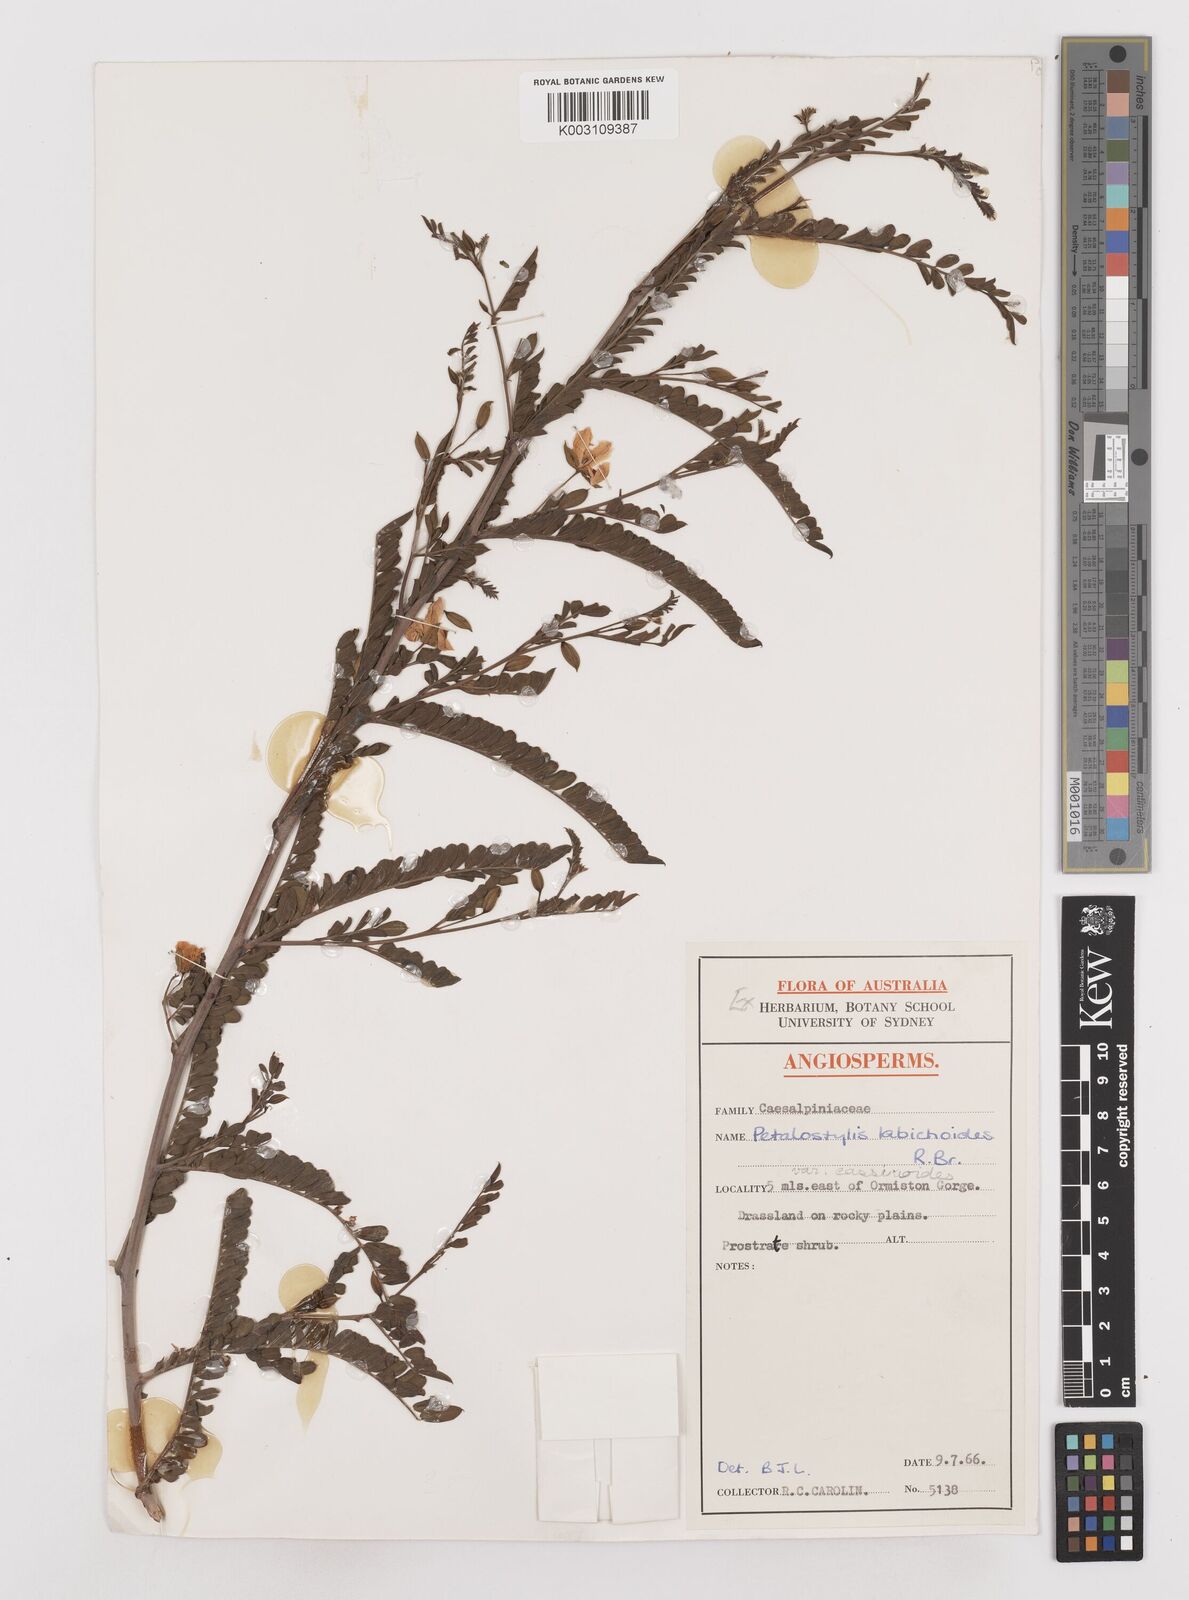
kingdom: Plantae
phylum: Tracheophyta
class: Magnoliopsida
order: Fabales
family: Fabaceae
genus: Petalostylis
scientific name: Petalostylis labicheoides
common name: Butterfly bush
